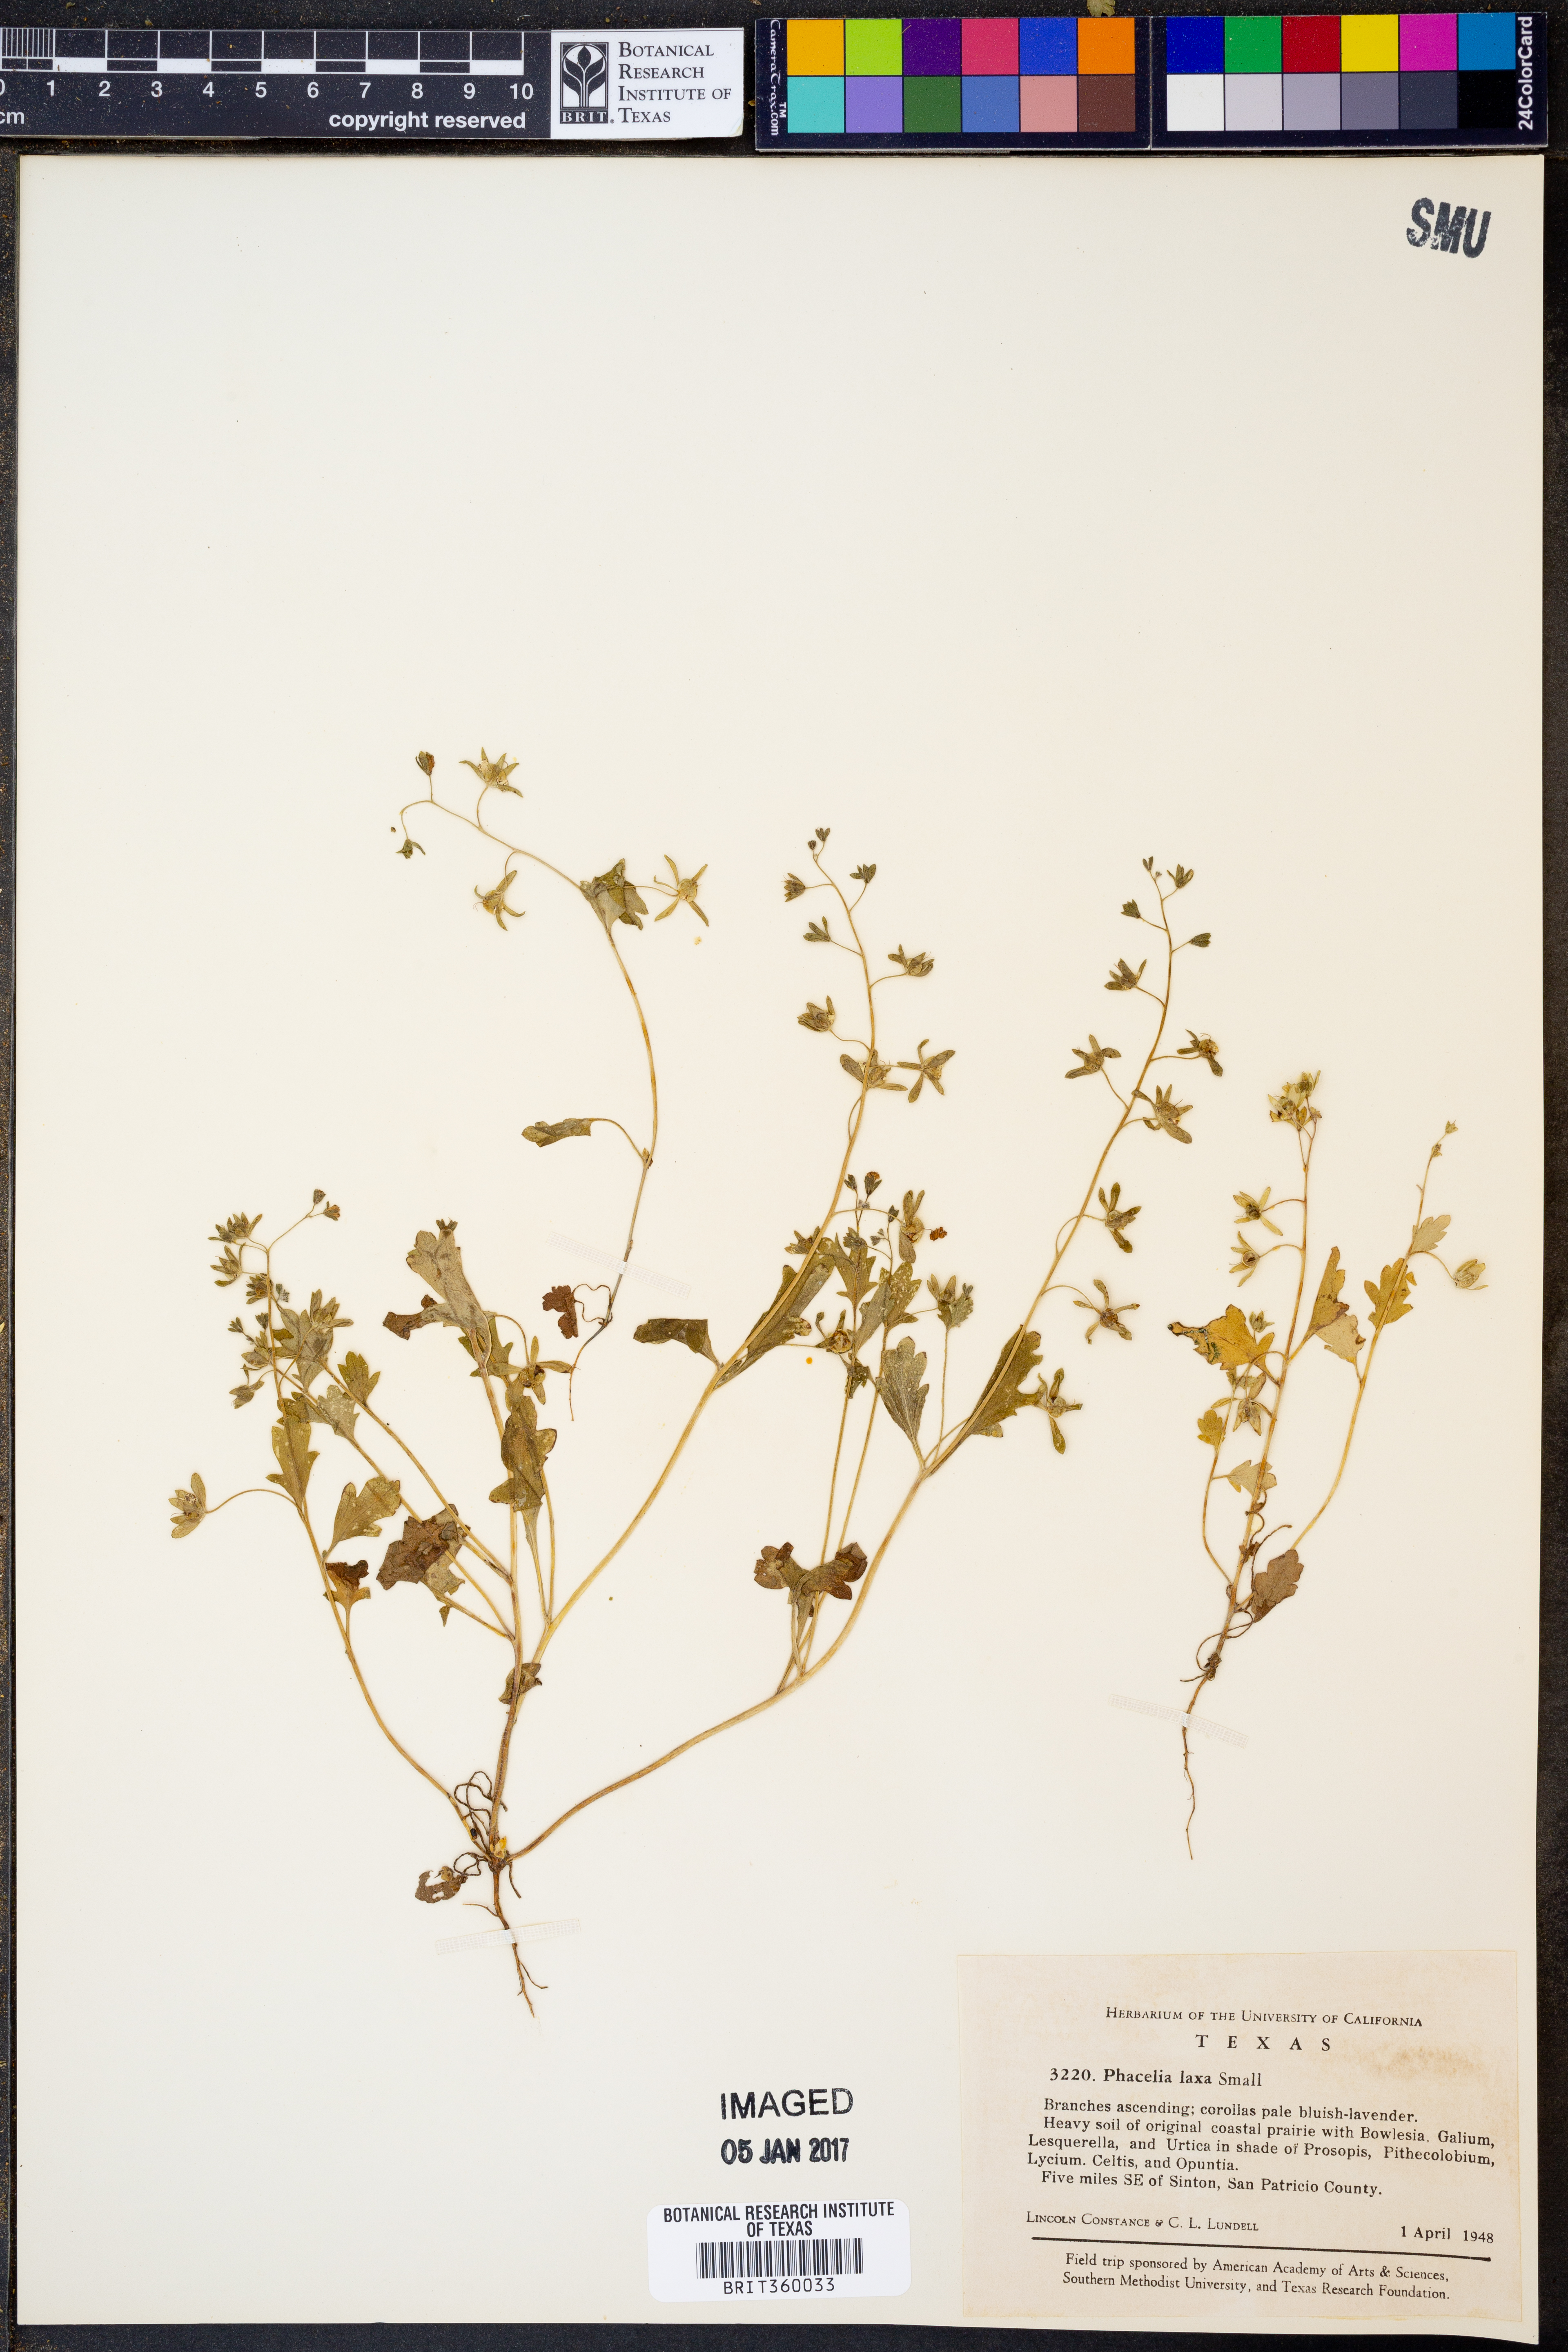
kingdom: Plantae
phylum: Tracheophyta
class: Magnoliopsida
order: Boraginales
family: Hydrophyllaceae
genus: Phacelia
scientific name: Phacelia laxa
